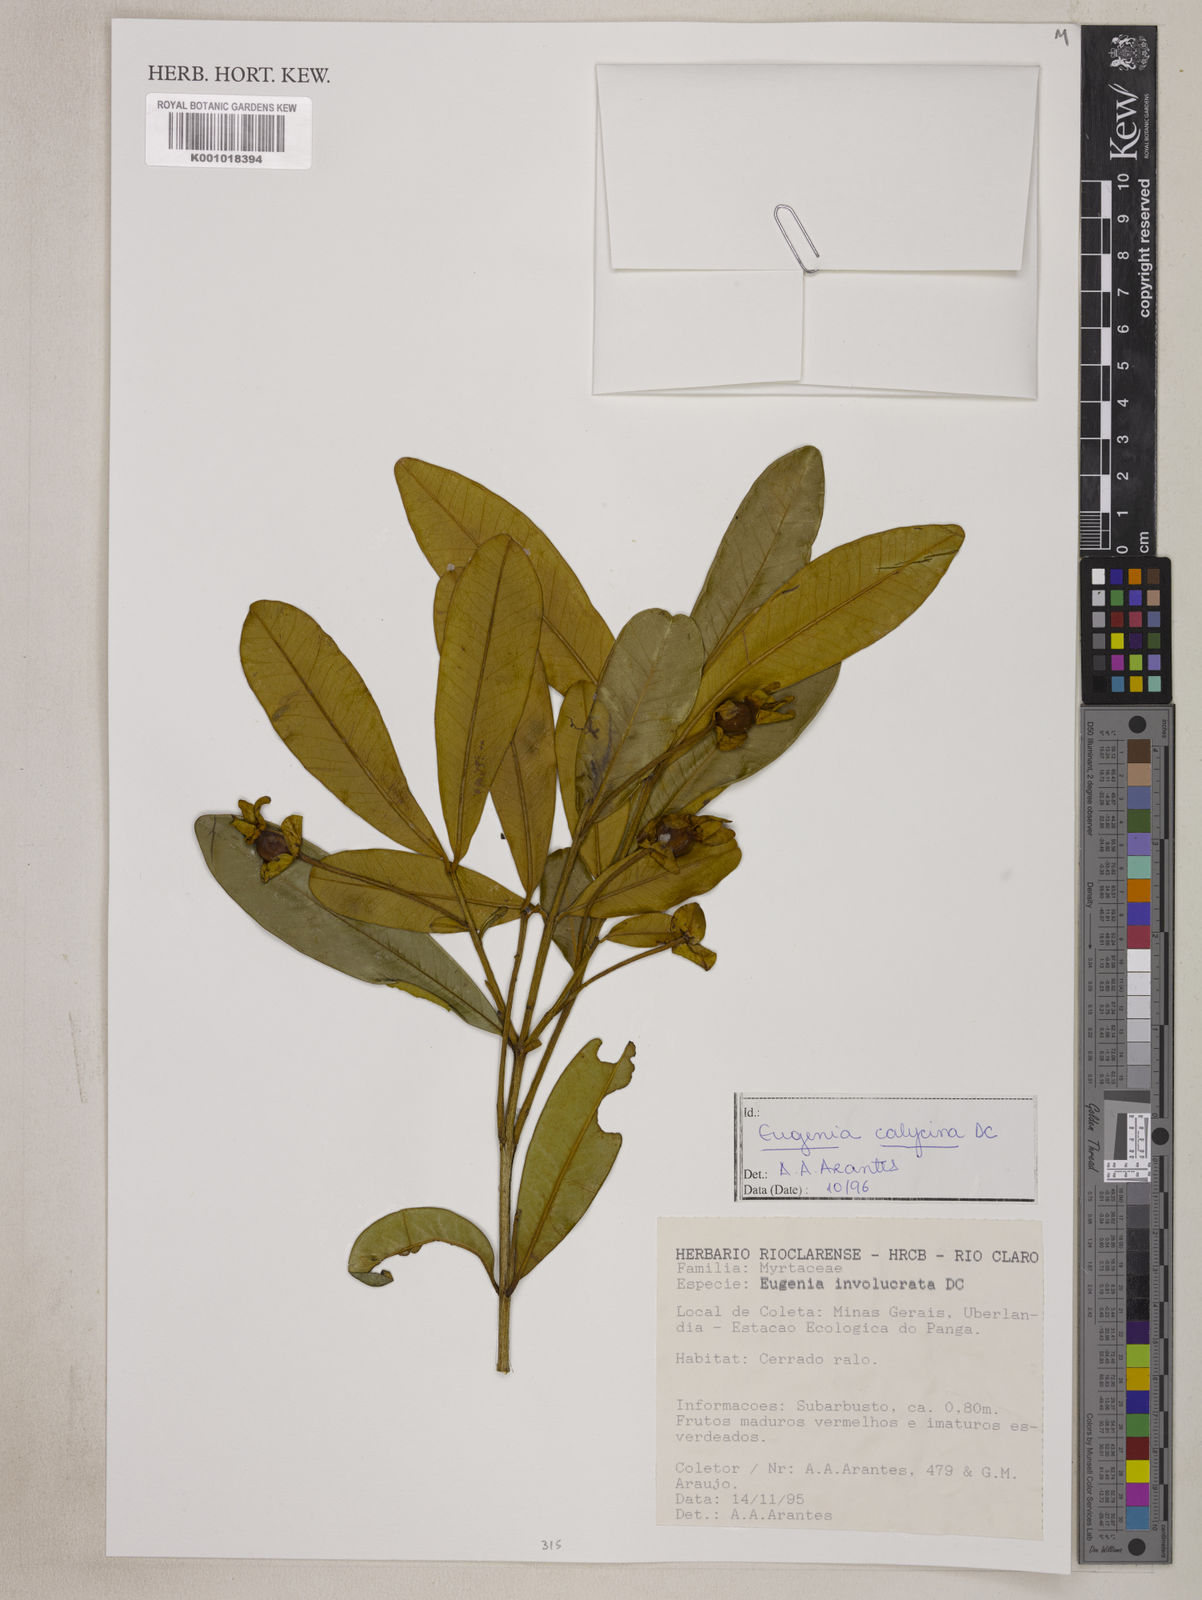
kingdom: Plantae
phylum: Tracheophyta
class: Magnoliopsida
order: Myrtales
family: Myrtaceae
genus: Eugenia
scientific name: Eugenia calycina
